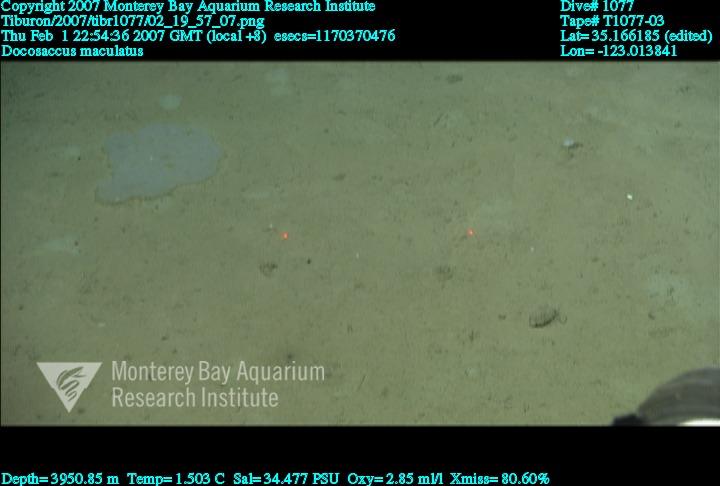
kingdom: Animalia
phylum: Porifera
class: Hexactinellida
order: Lyssacinosida
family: Euplectellidae
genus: Docosaccus
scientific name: Docosaccus maculatus
